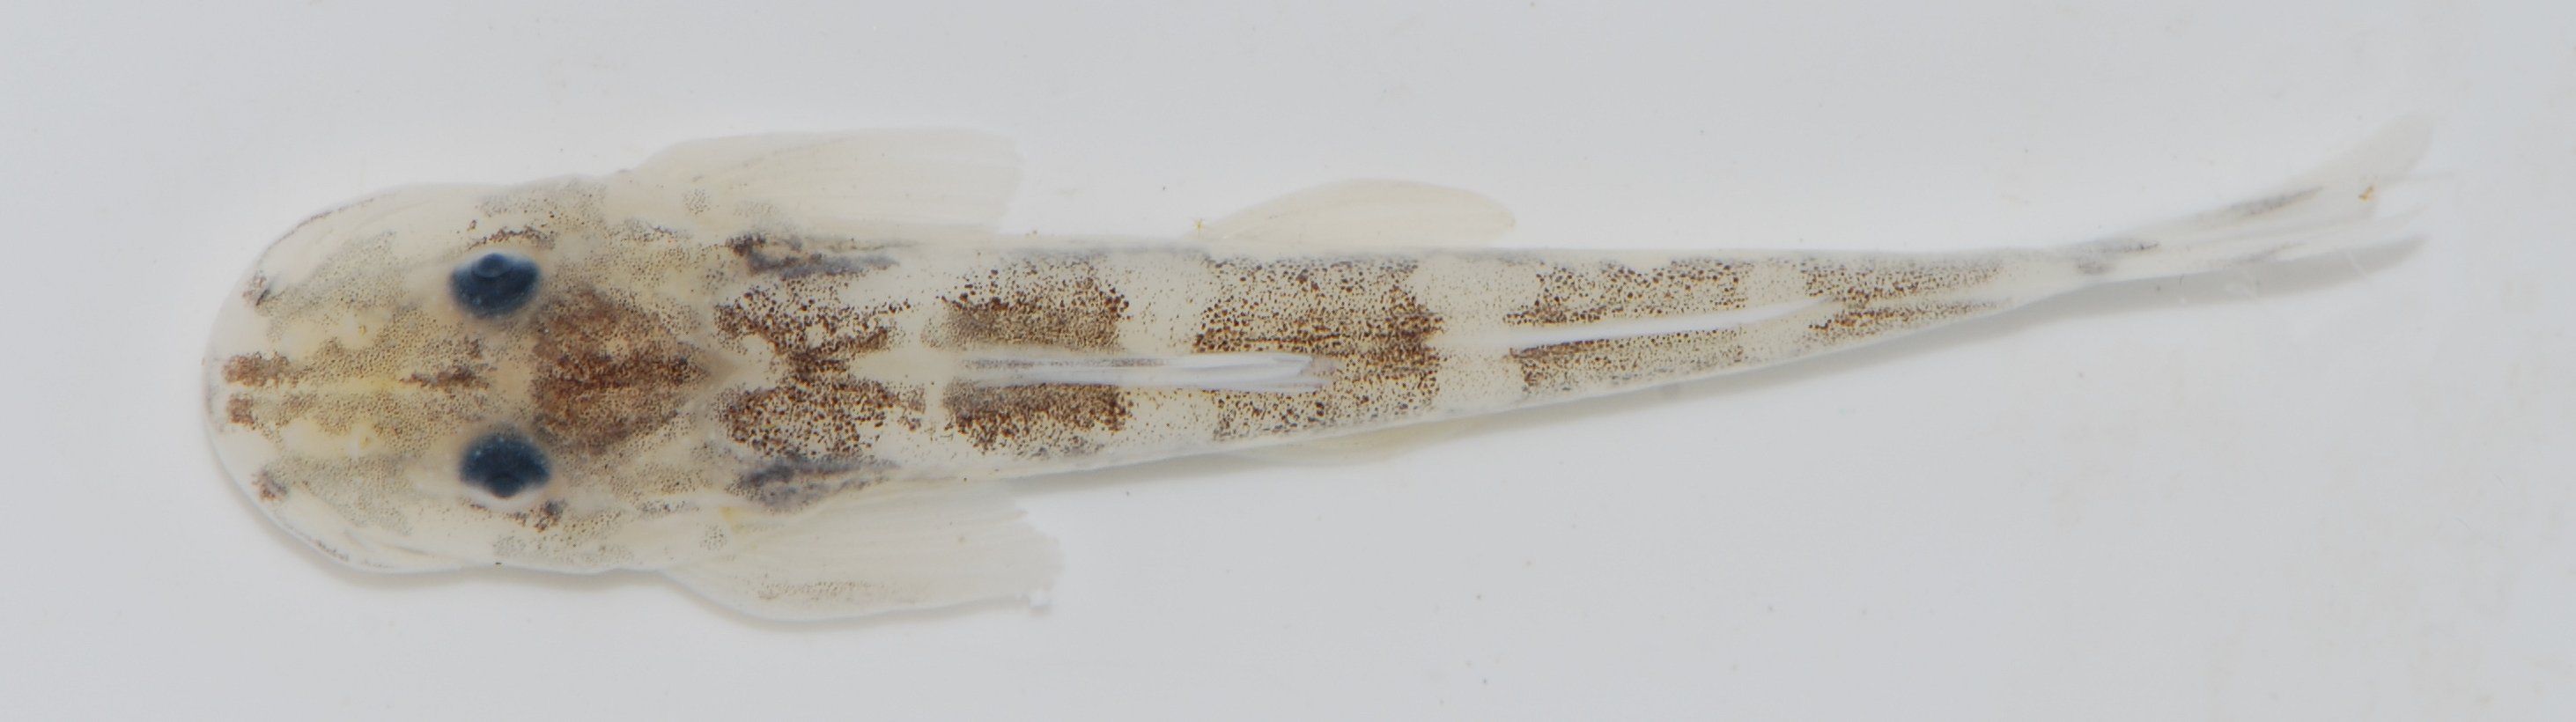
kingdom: Animalia
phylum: Chordata
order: Siluriformes
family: Amphiliidae
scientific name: Amphiliidae
